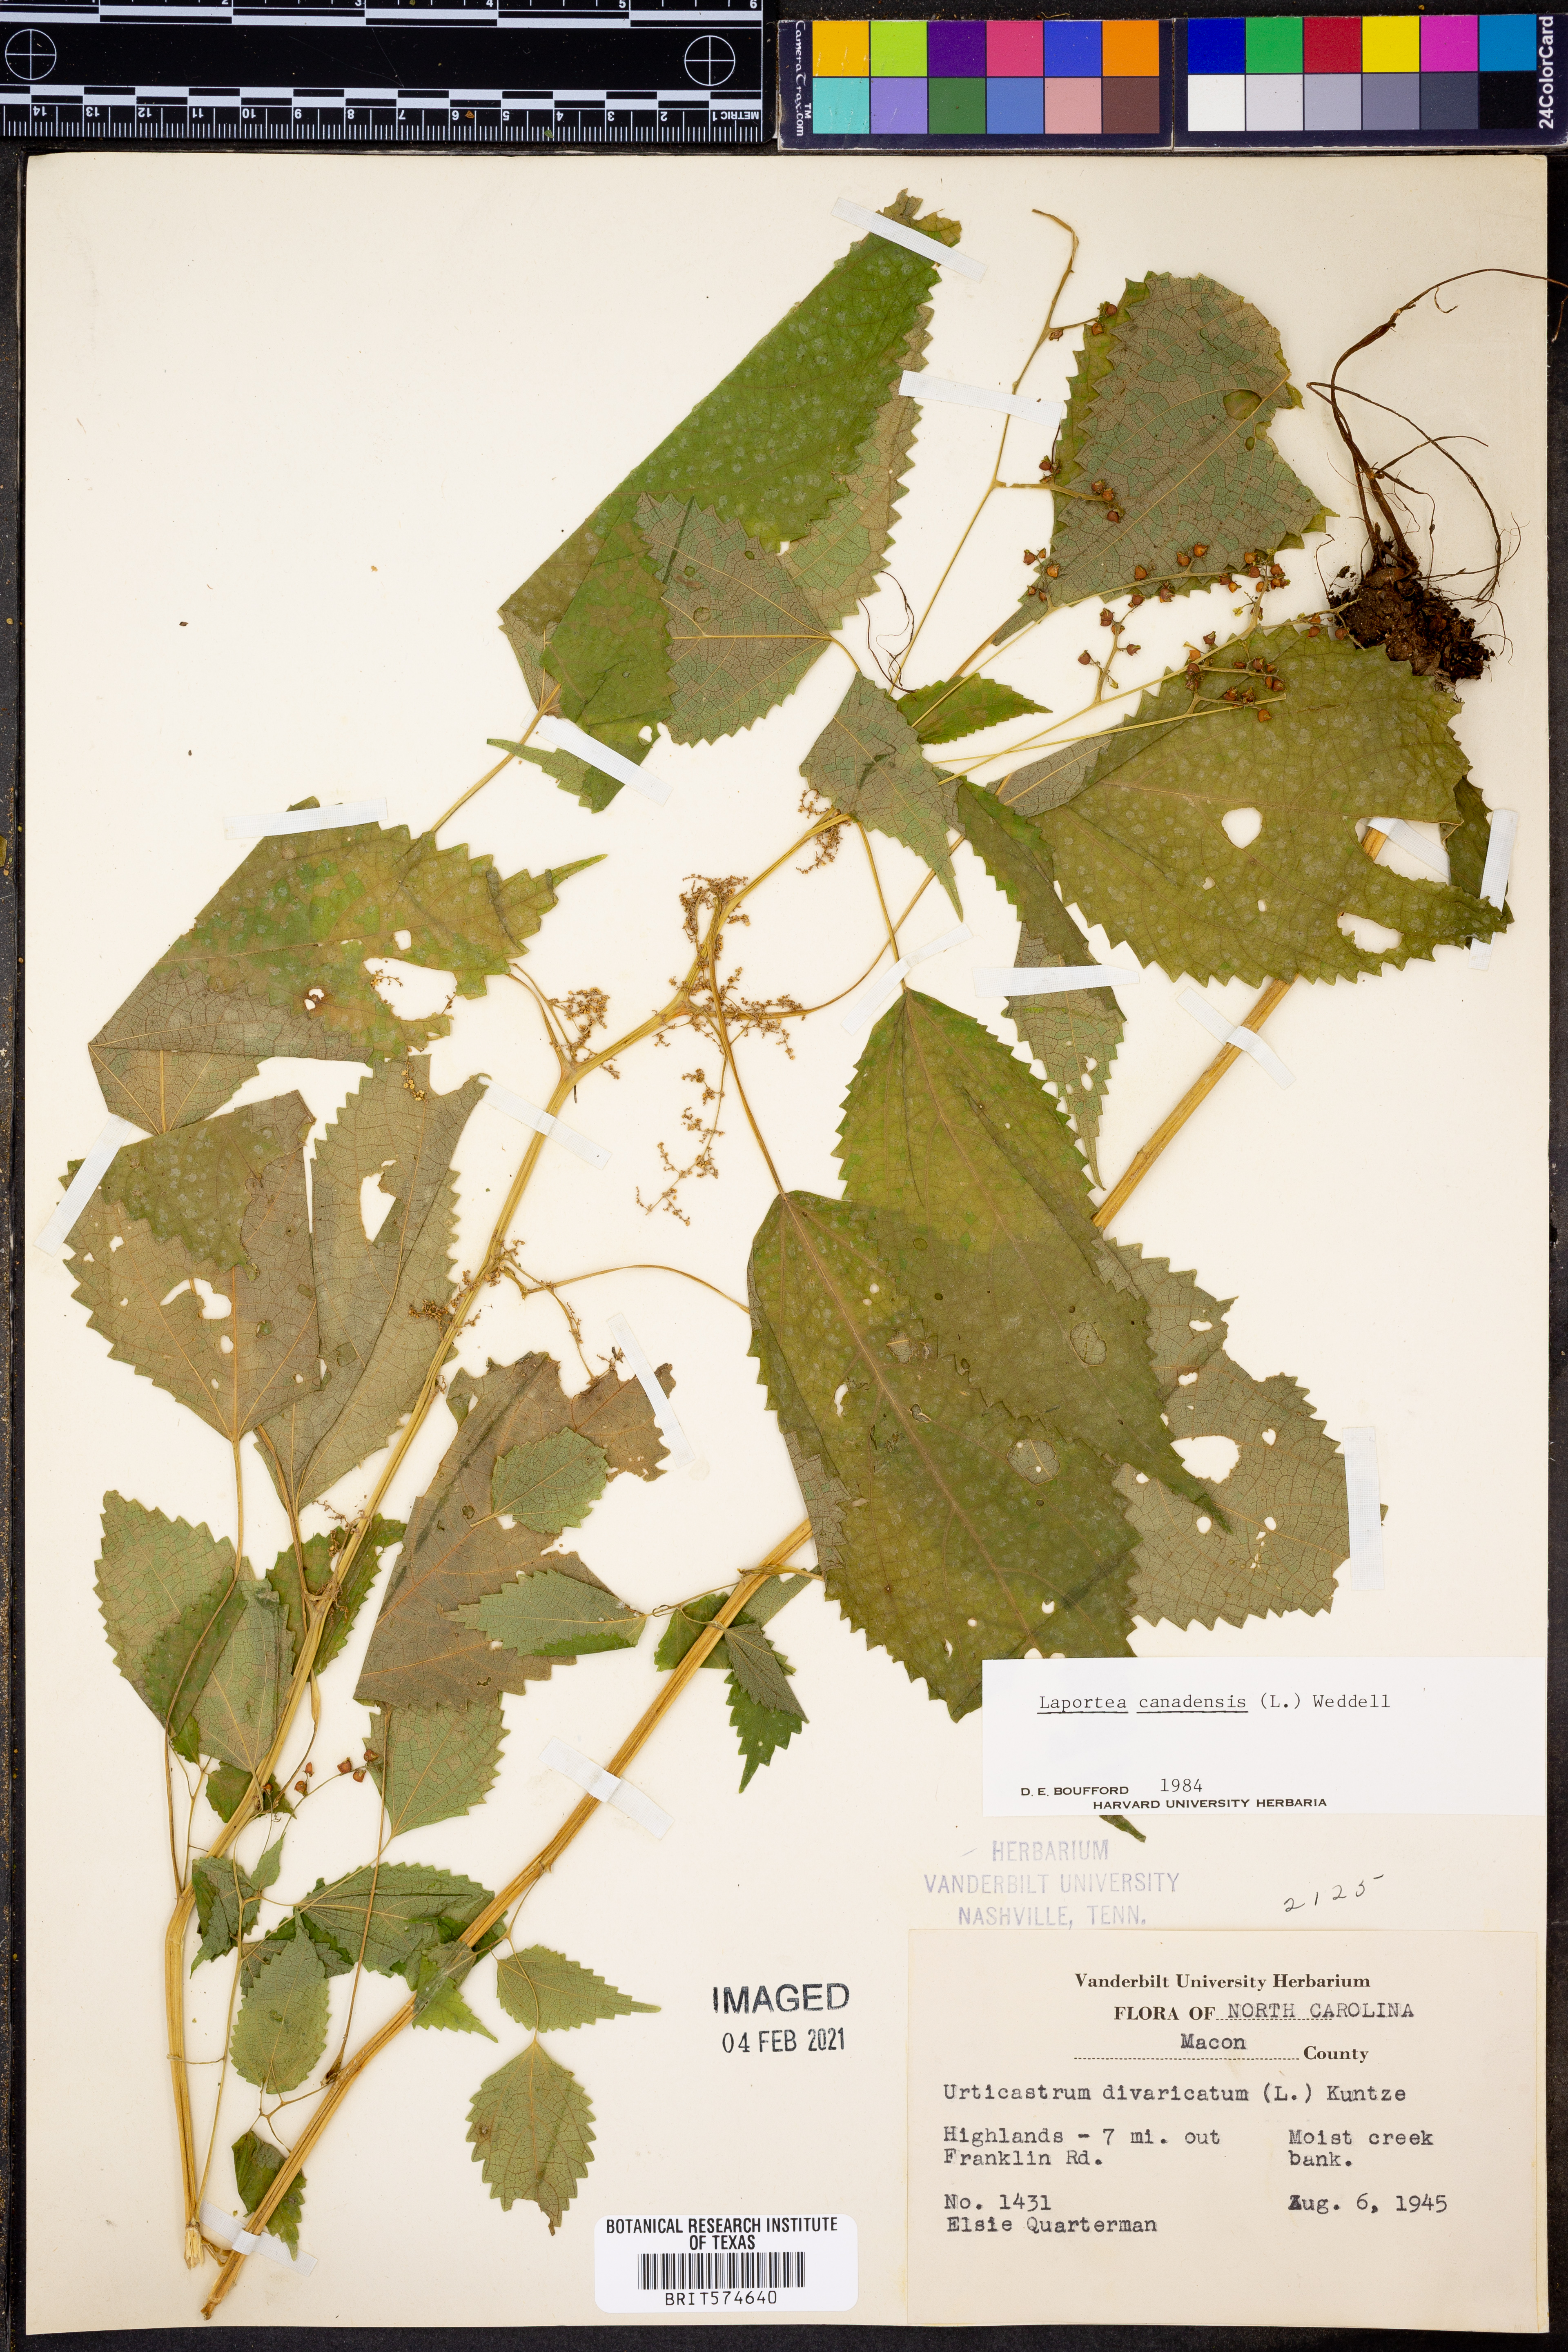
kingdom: Plantae
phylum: Tracheophyta
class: Magnoliopsida
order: Rosales
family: Urticaceae
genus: Laportea
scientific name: Laportea canadensis
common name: Canada nettle
